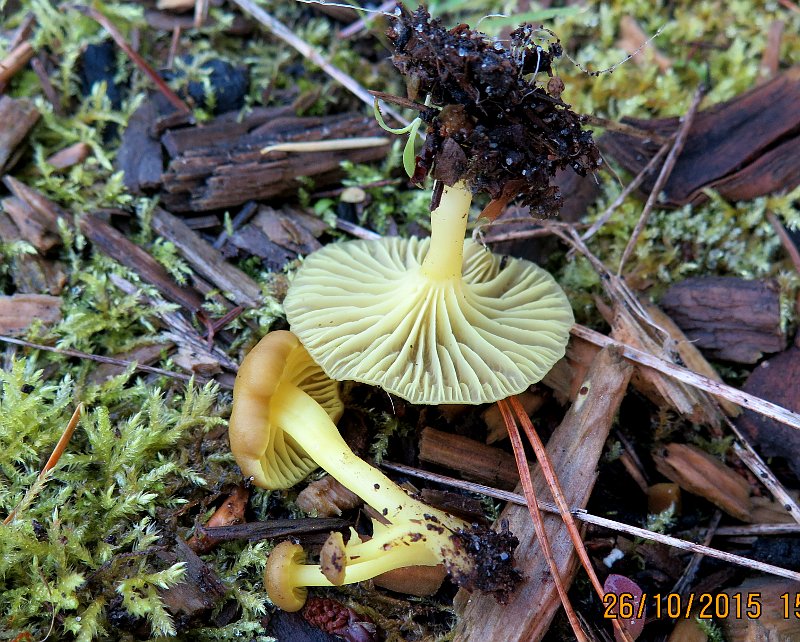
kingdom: Fungi
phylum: Basidiomycota
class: Agaricomycetes
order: Agaricales
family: Hygrophoraceae
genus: Chrysomphalina
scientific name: Chrysomphalina grossula
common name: stød-gyldenblad
